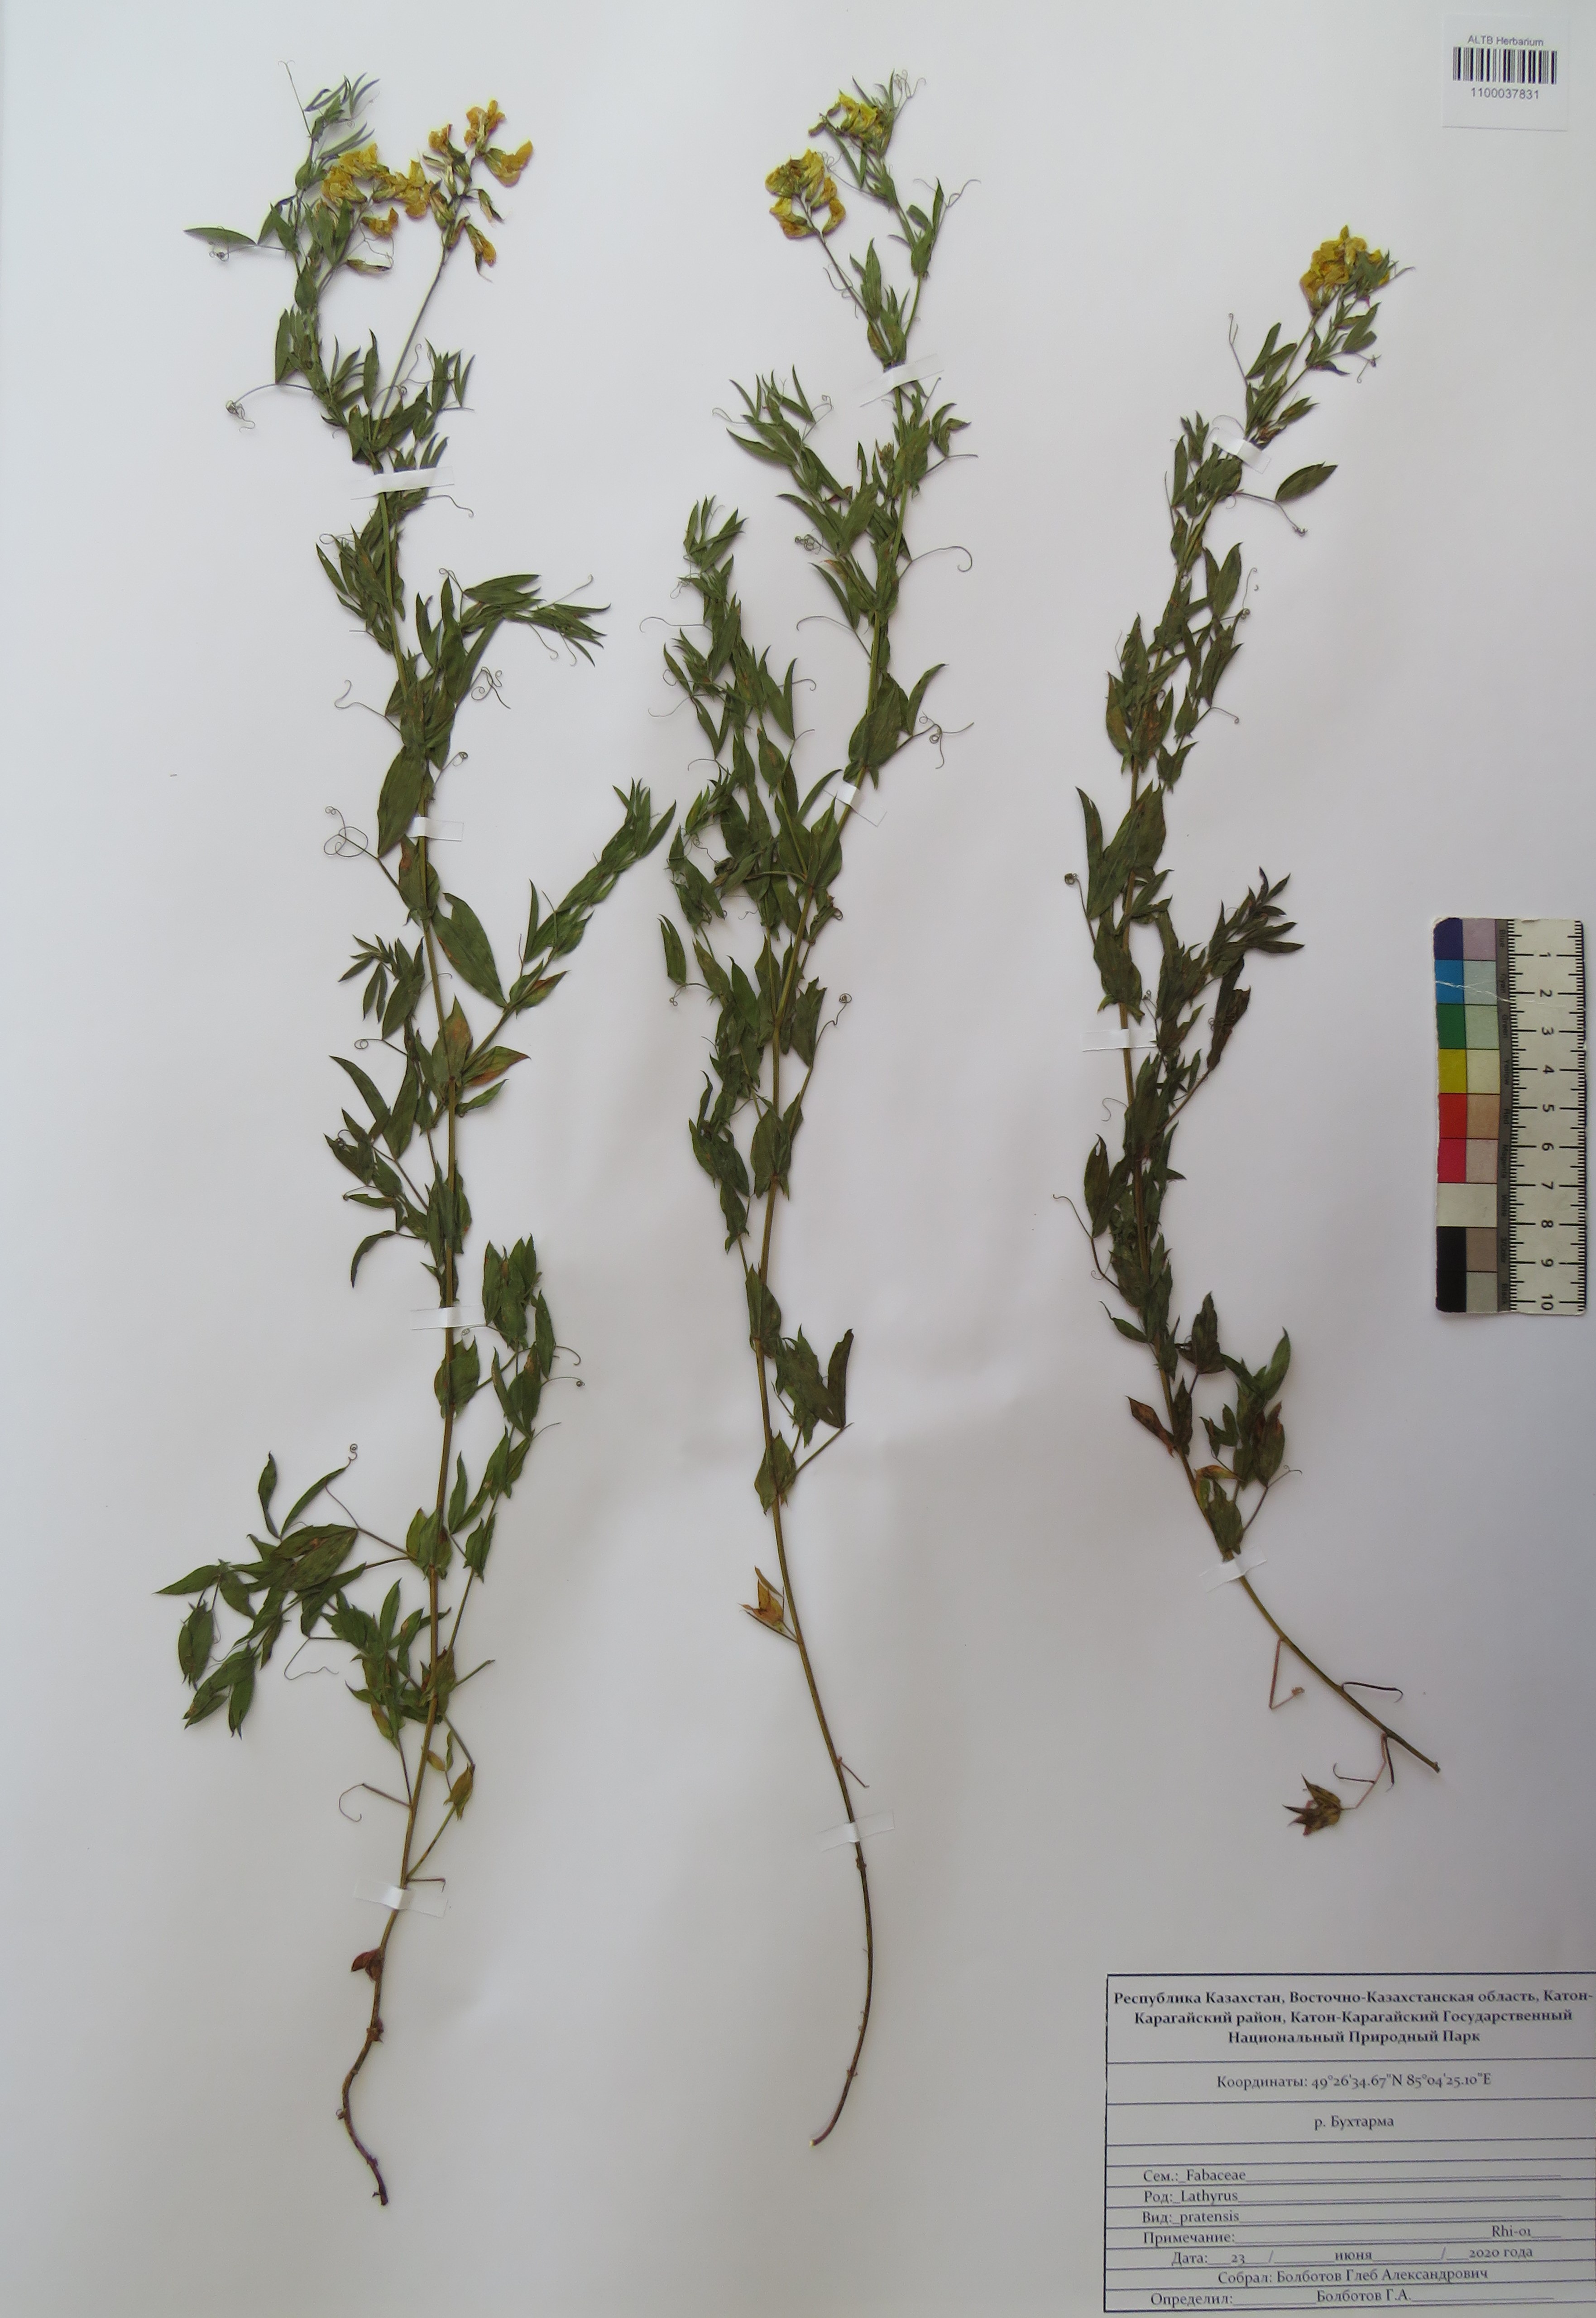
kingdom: Plantae
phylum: Tracheophyta
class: Magnoliopsida
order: Fabales
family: Fabaceae
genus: Lathyrus
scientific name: Lathyrus pratensis
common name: Meadow vetchling
